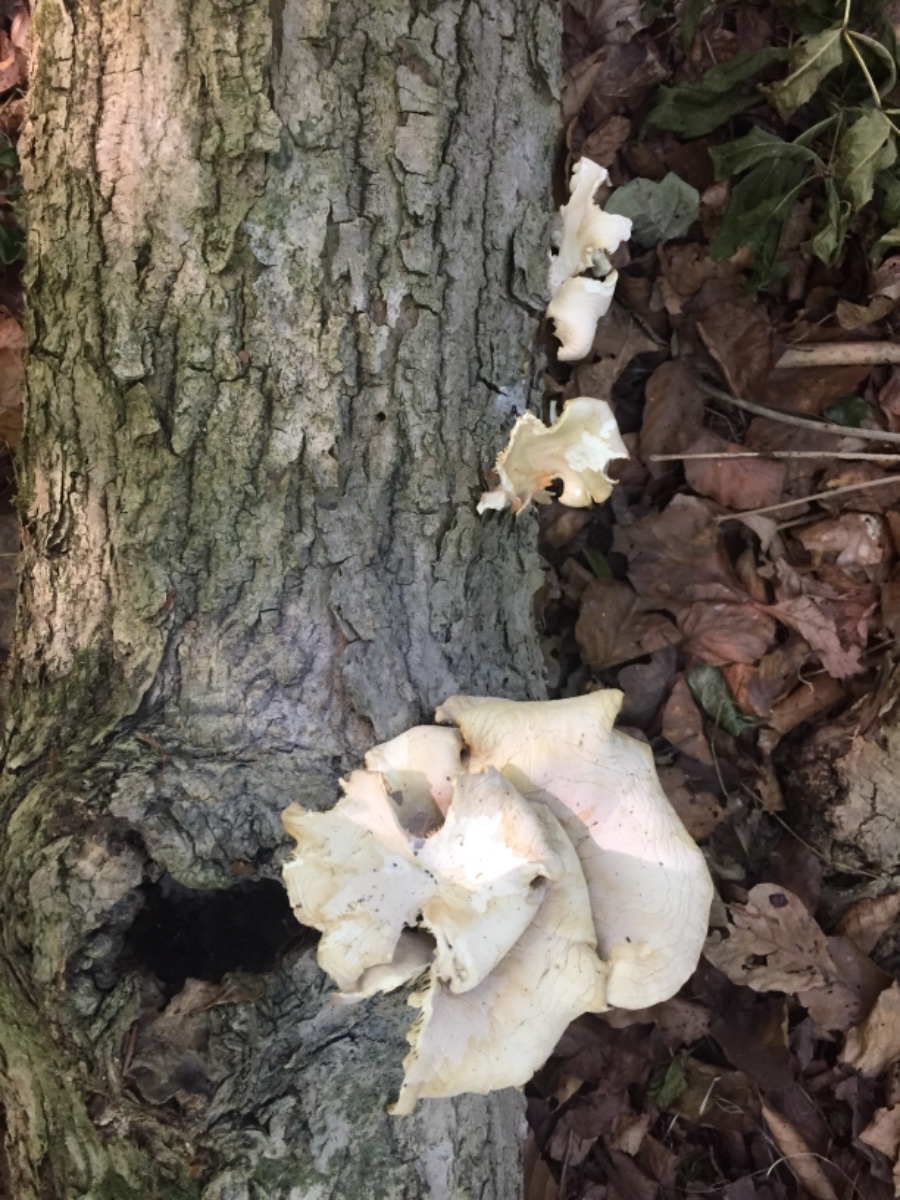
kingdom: Fungi
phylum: Basidiomycota
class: Agaricomycetes
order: Agaricales
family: Pleurotaceae
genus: Pleurotus
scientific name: Pleurotus pulmonarius
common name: sommer-østershat
